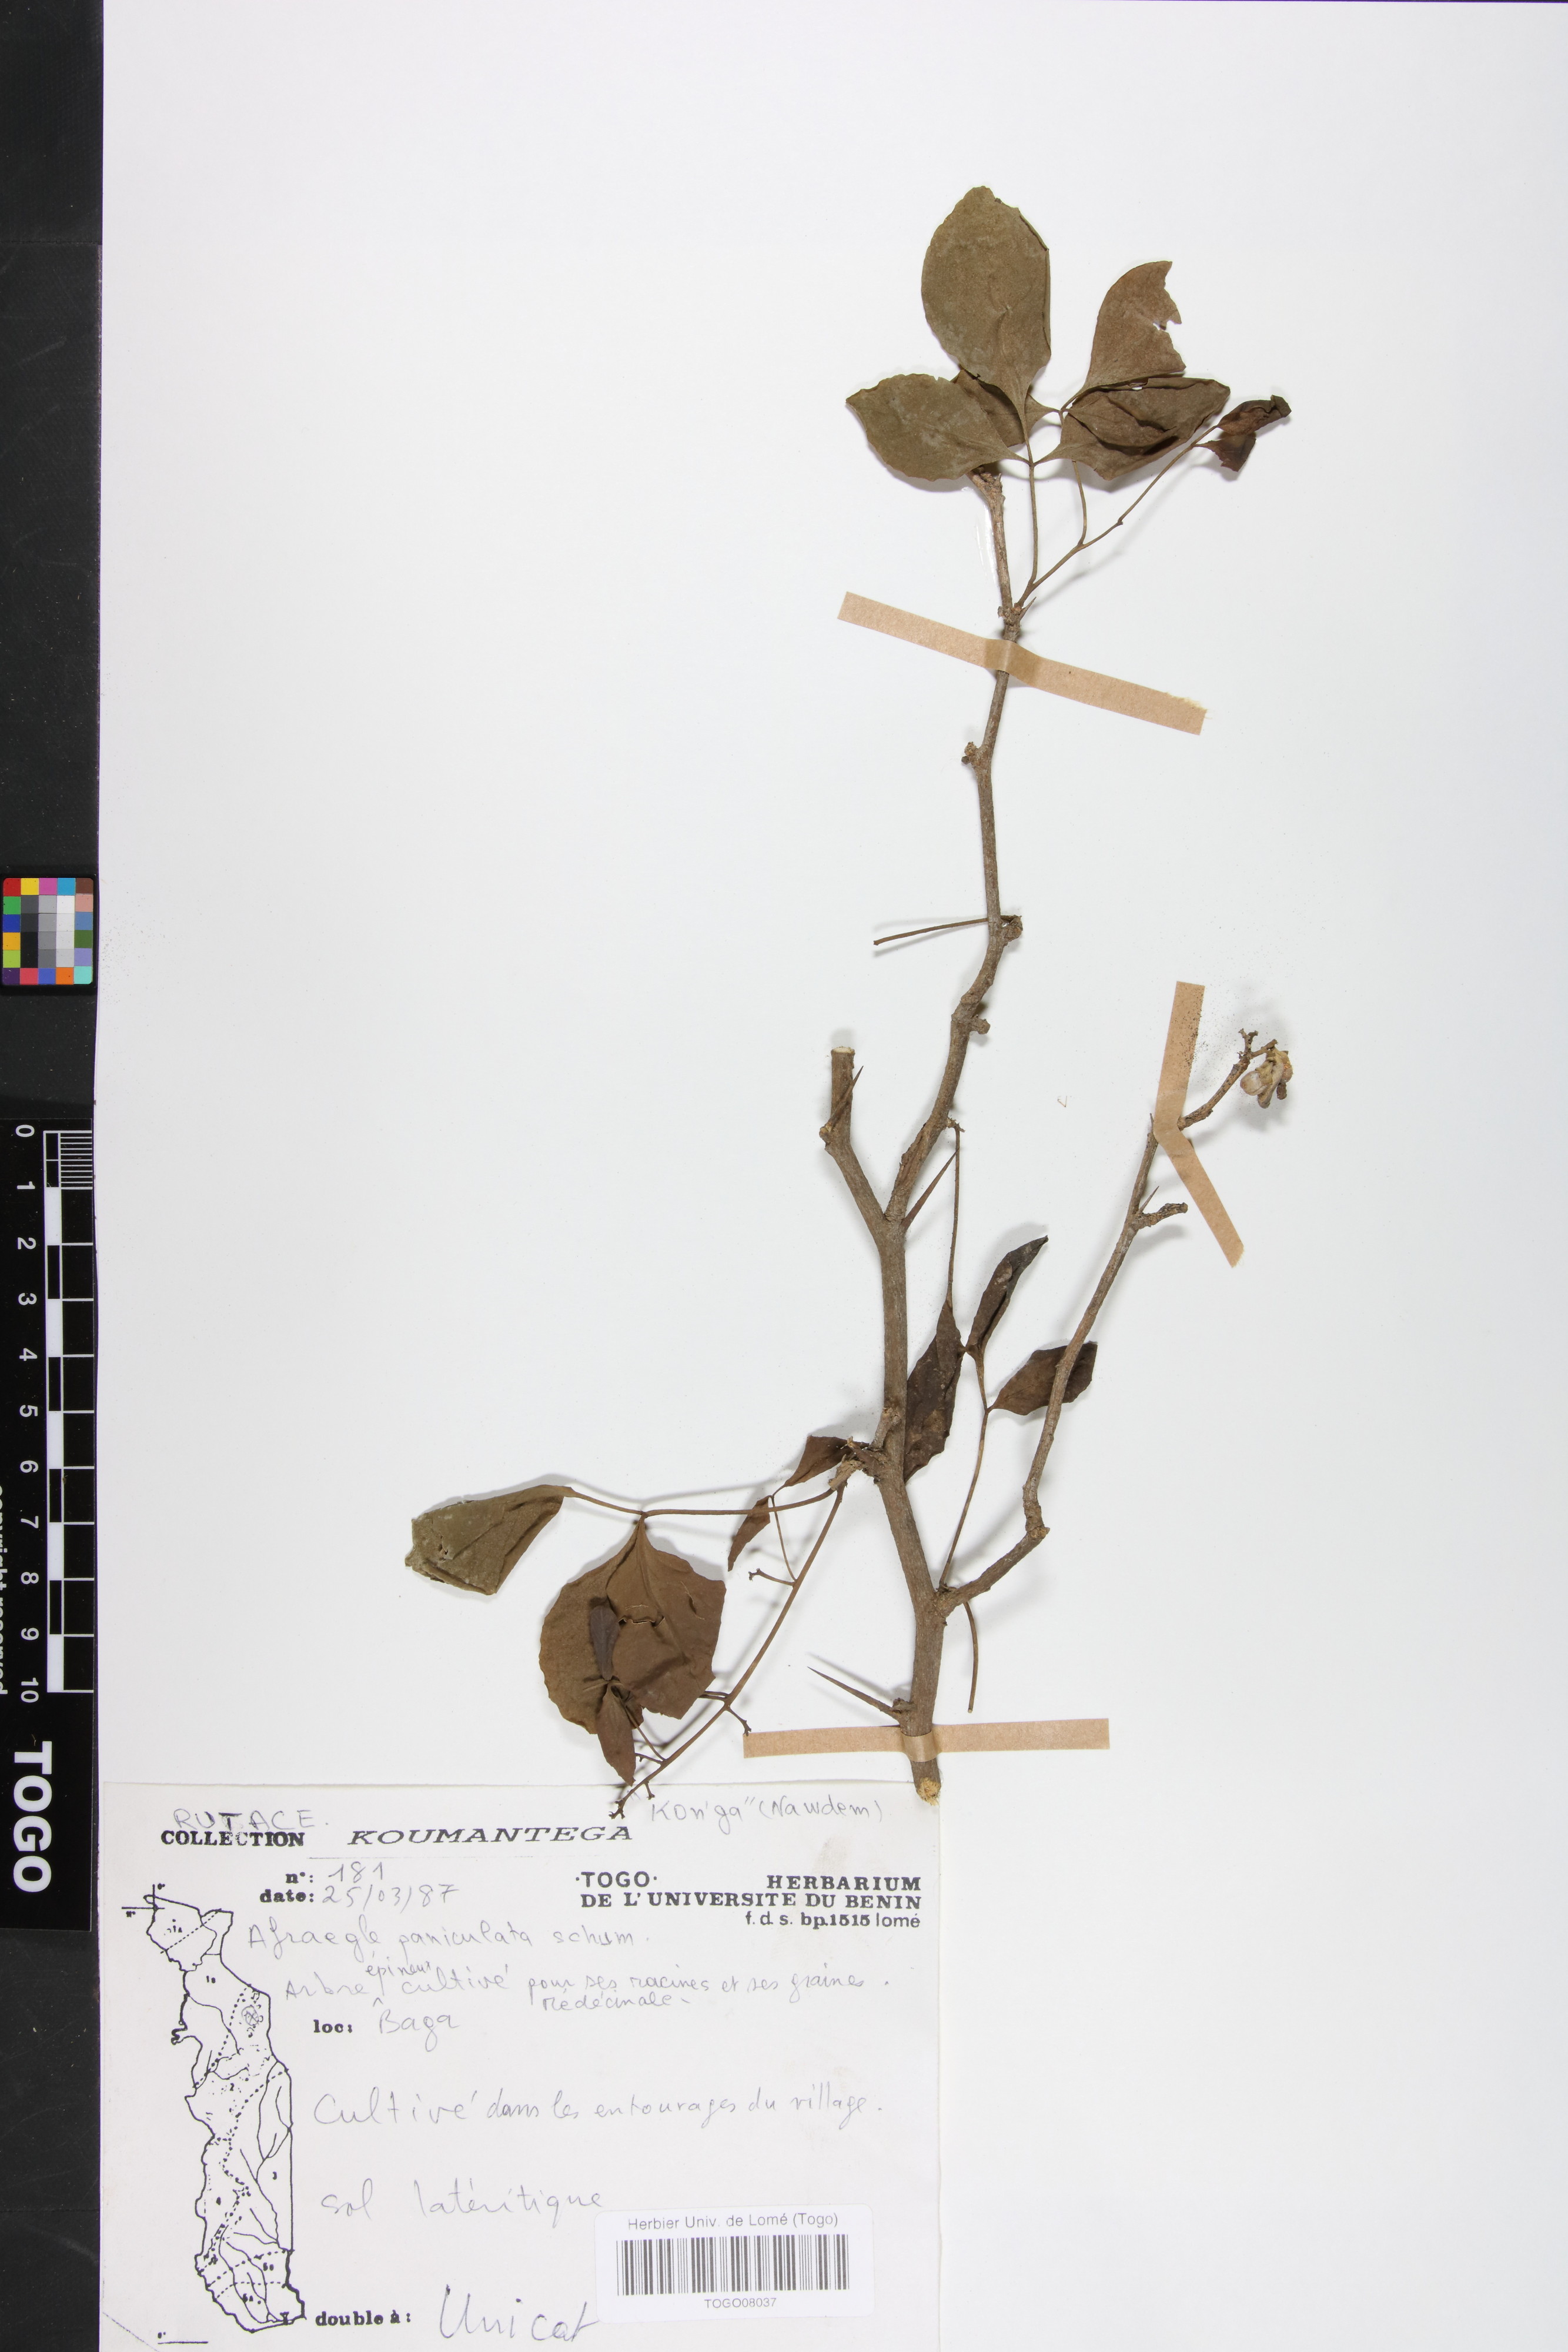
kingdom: Plantae
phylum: Tracheophyta
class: Magnoliopsida
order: Sapindales
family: Rutaceae
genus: Afraegle
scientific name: Afraegle paniculata
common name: Guin-guin
